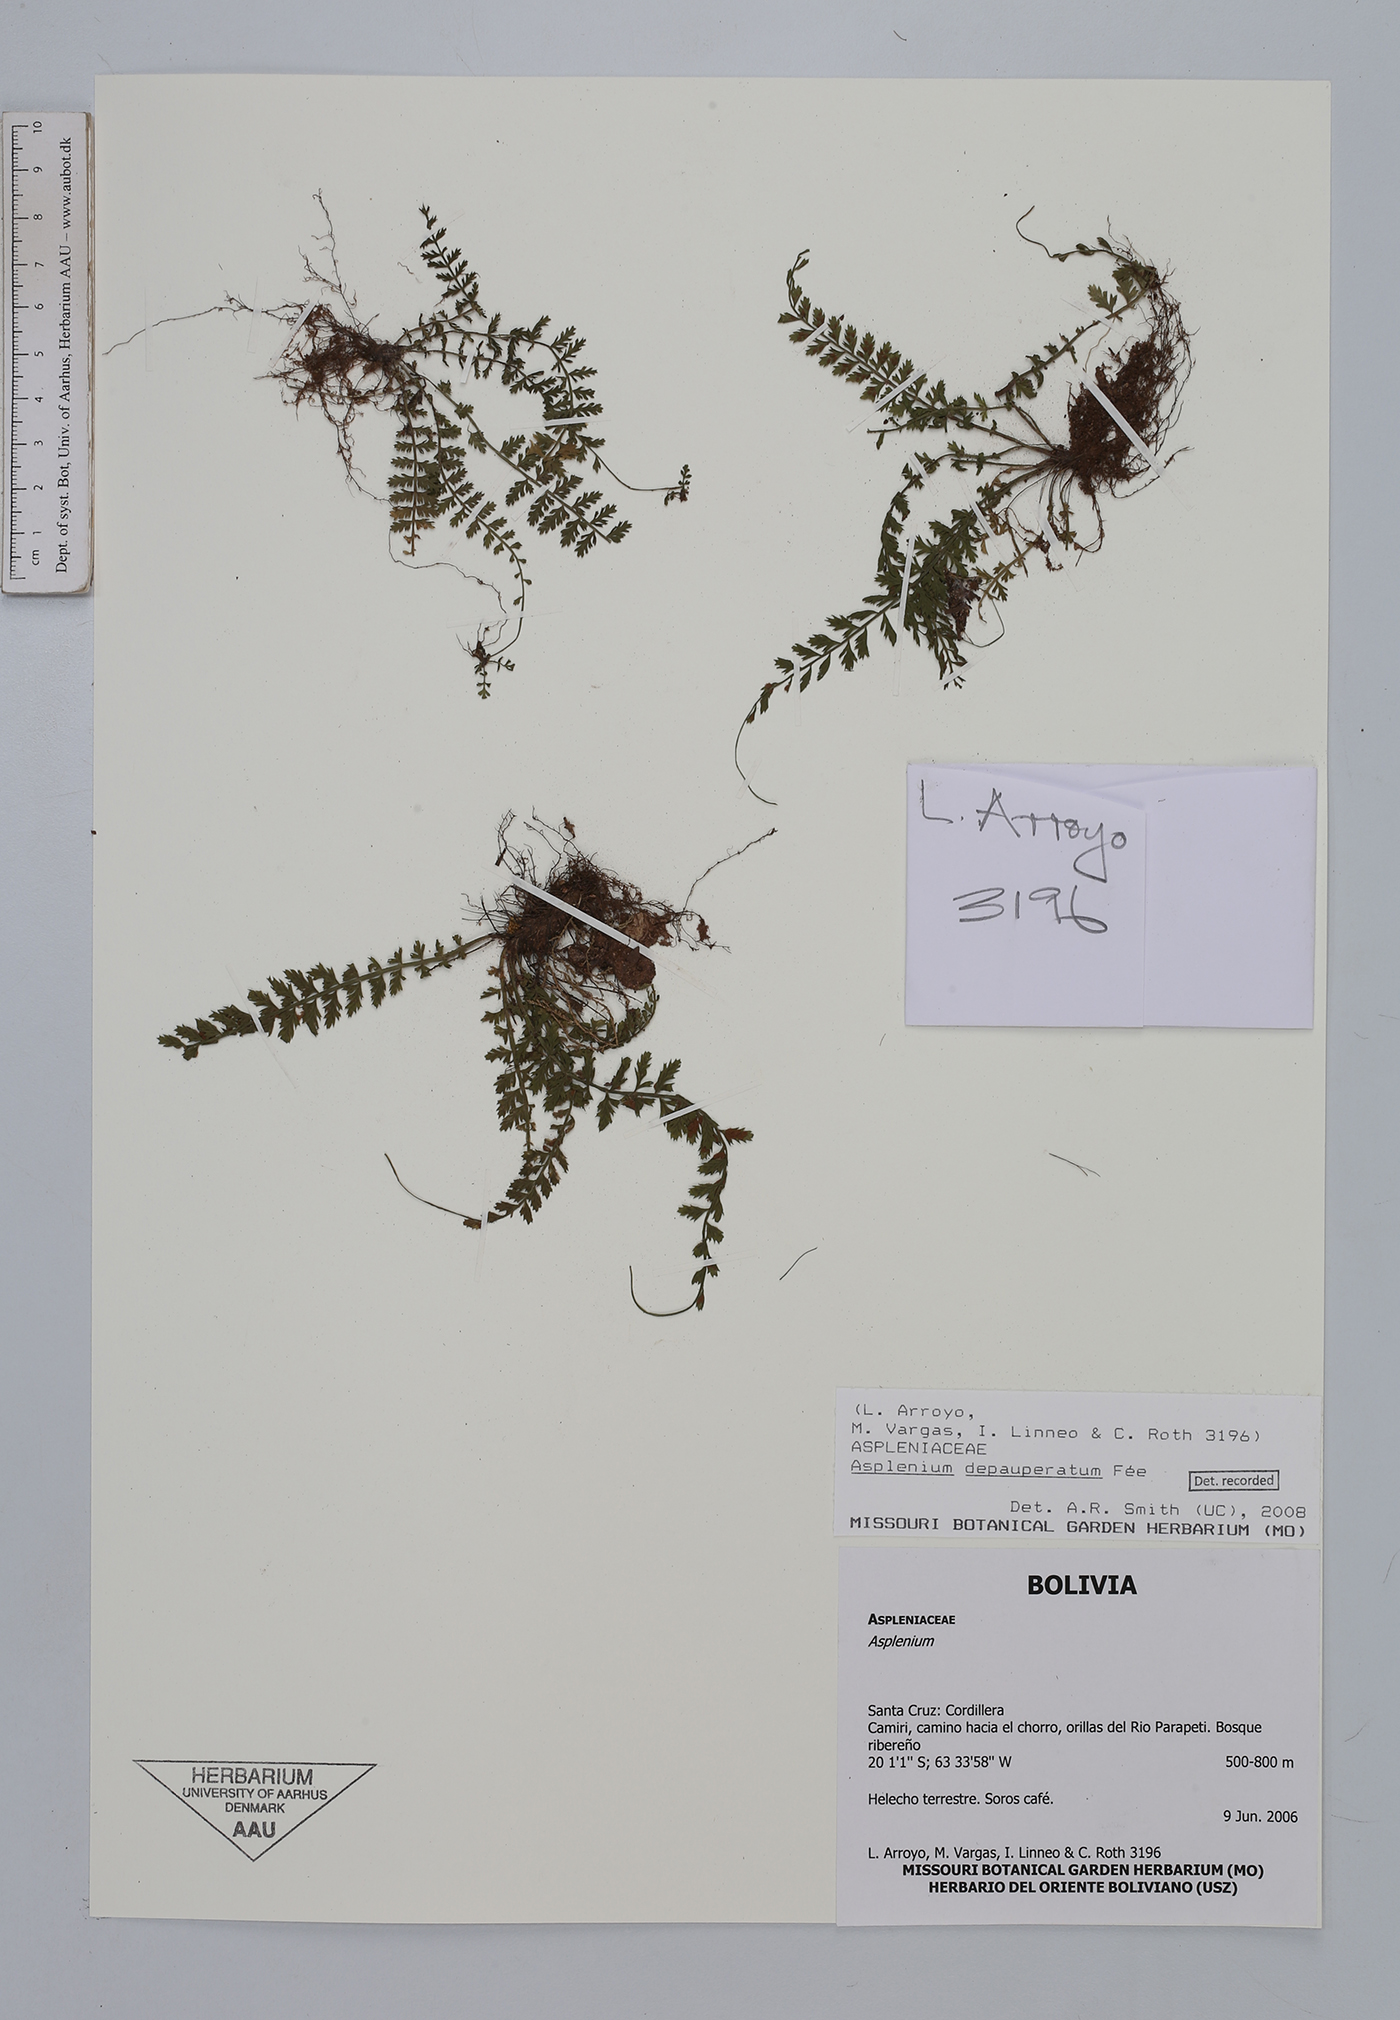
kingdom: Plantae
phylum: Tracheophyta
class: Polypodiopsida
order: Polypodiales
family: Aspleniaceae
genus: Asplenium
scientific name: Asplenium depauperatum
